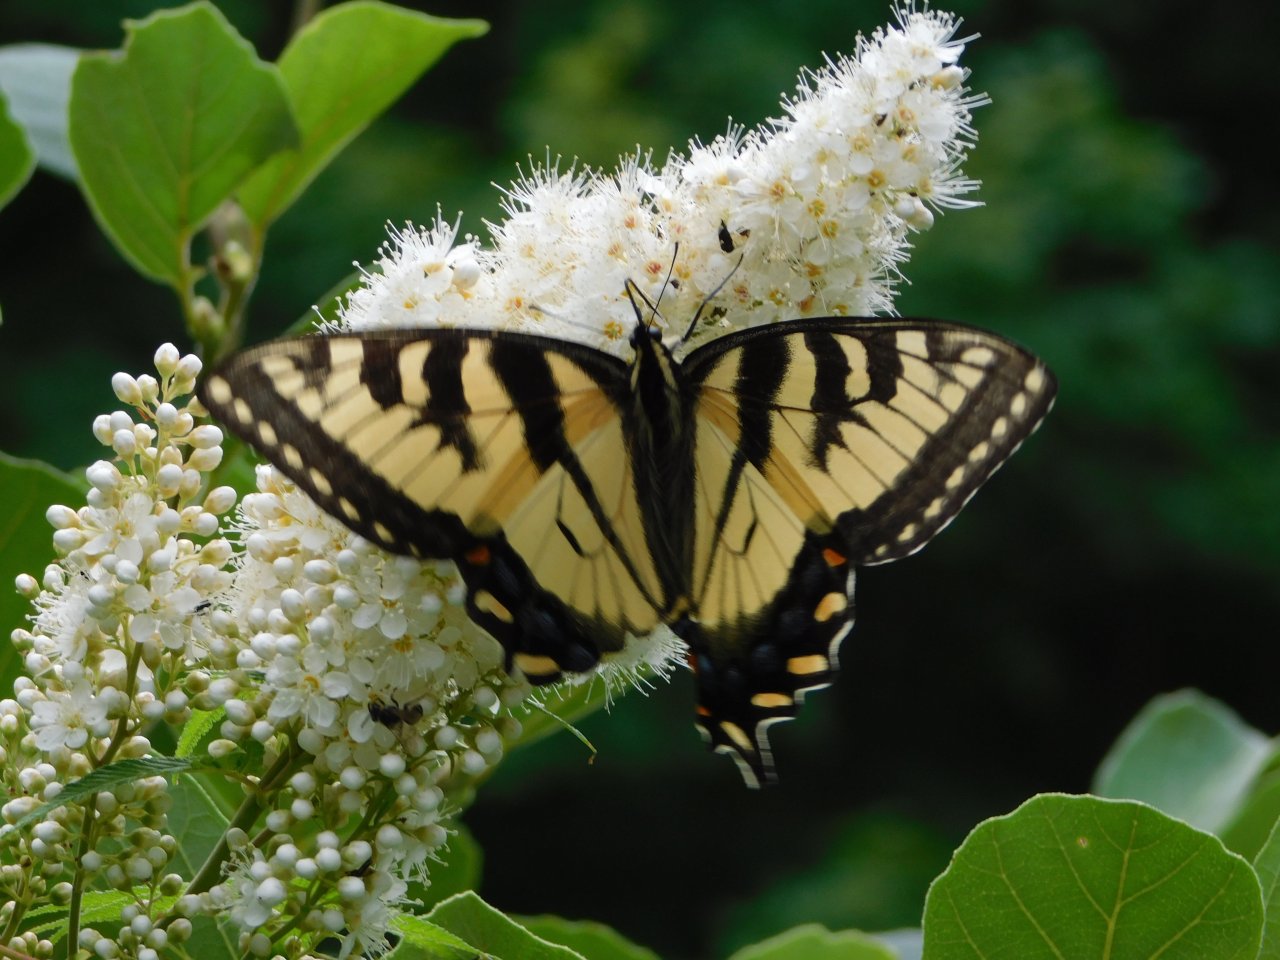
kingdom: Animalia
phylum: Arthropoda
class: Insecta
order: Lepidoptera
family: Papilionidae
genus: Papilio
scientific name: Papilio
